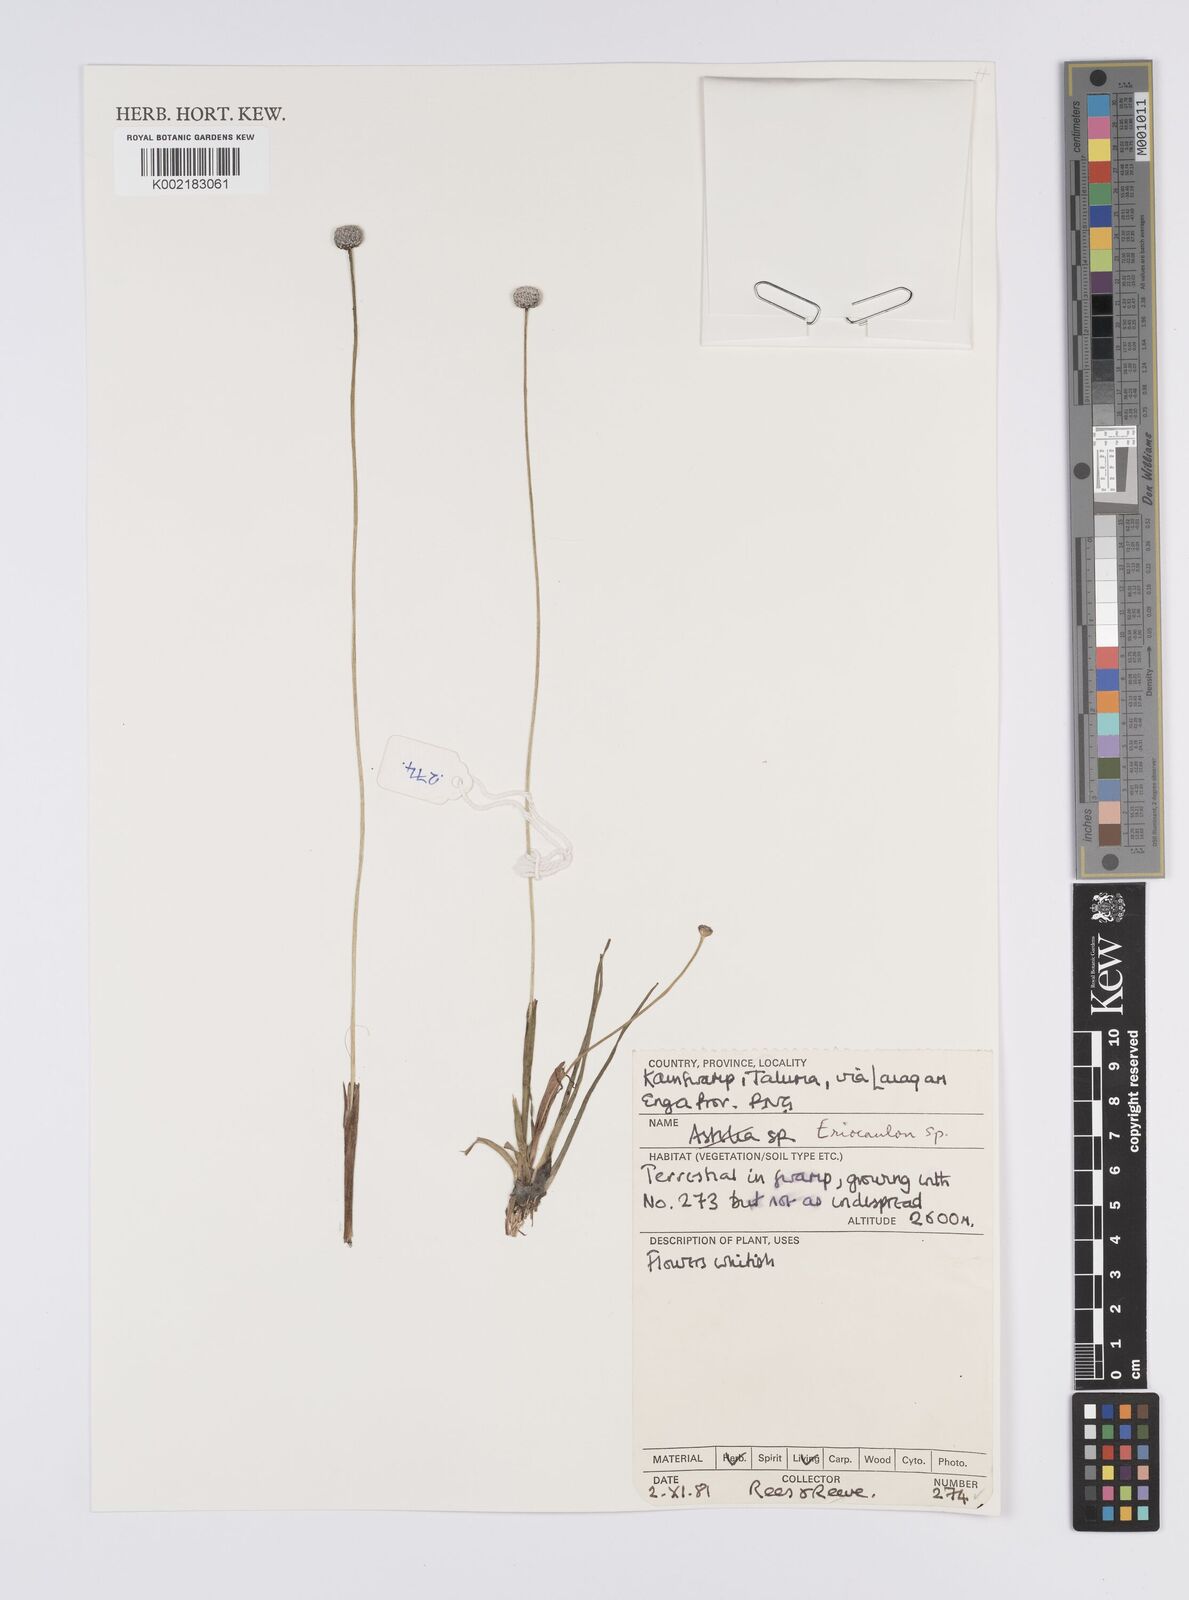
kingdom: Plantae
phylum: Tracheophyta
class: Liliopsida
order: Poales
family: Eriocaulaceae
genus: Eriocaulon
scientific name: Eriocaulon
